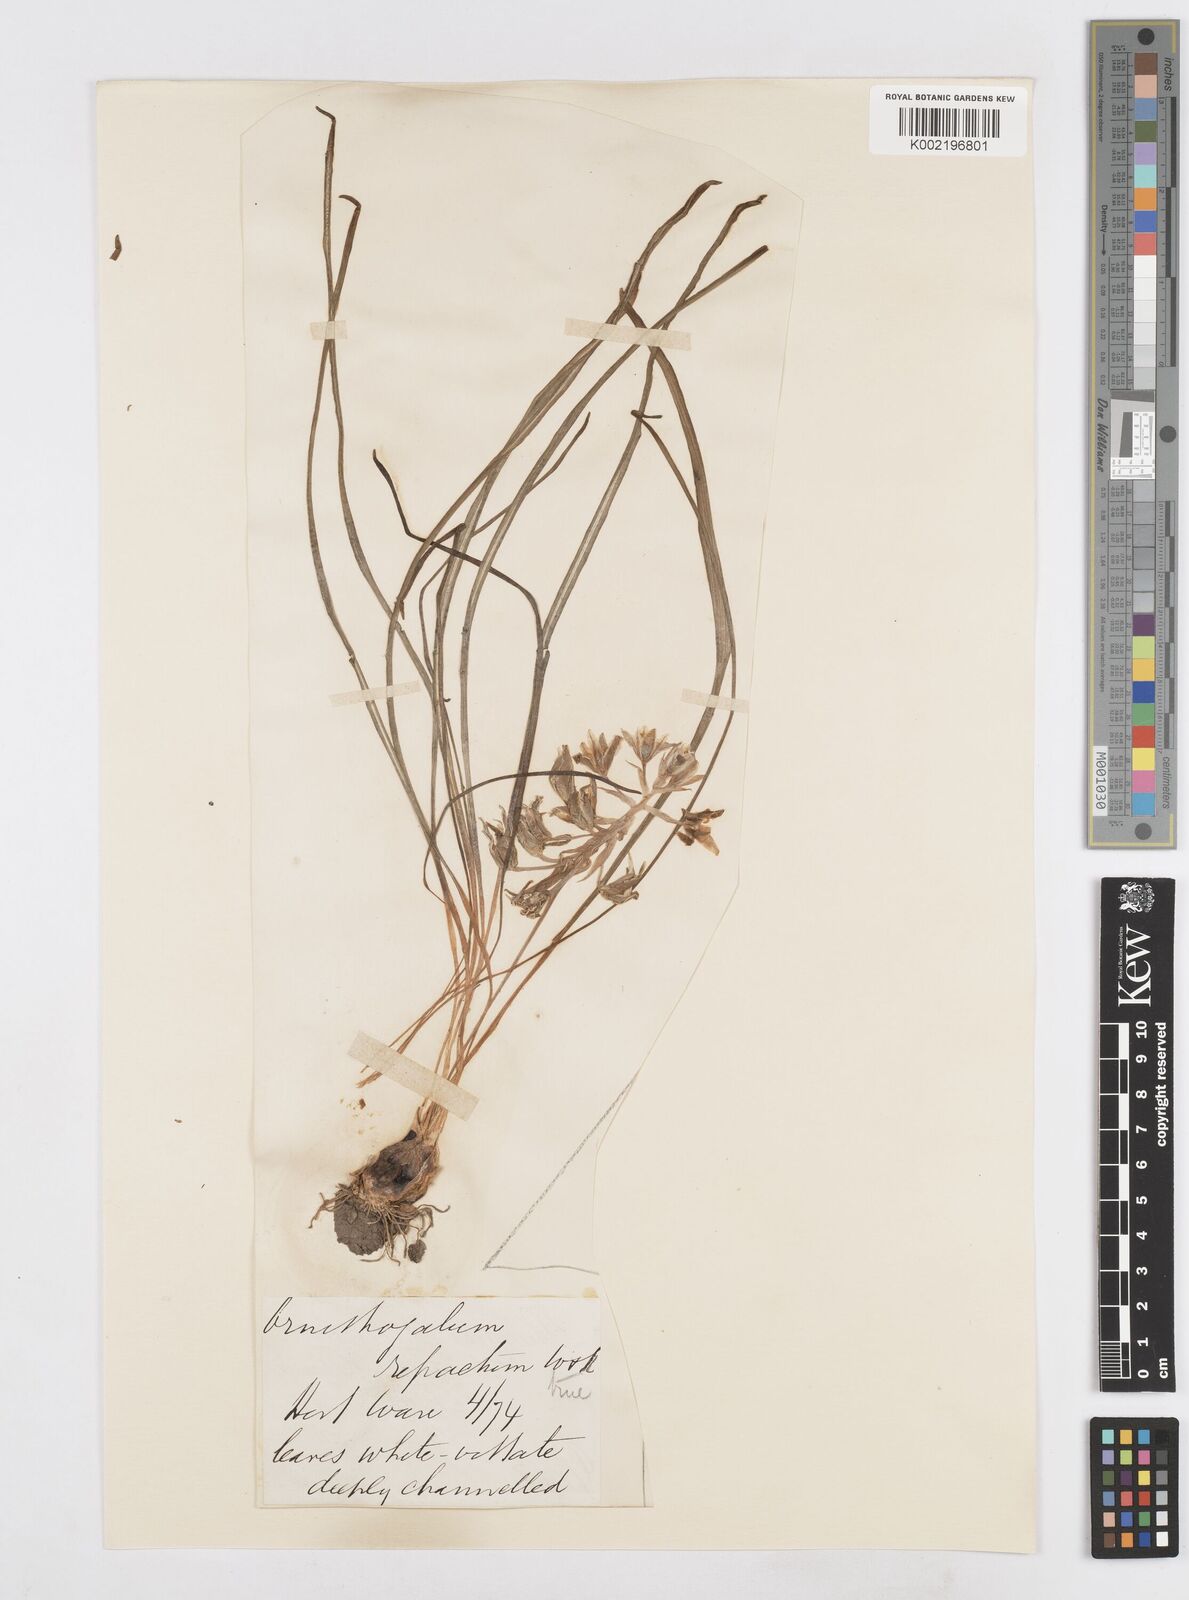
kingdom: Plantae
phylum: Tracheophyta
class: Liliopsida
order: Asparagales
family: Asparagaceae
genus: Ornithogalum
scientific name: Ornithogalum refractum
